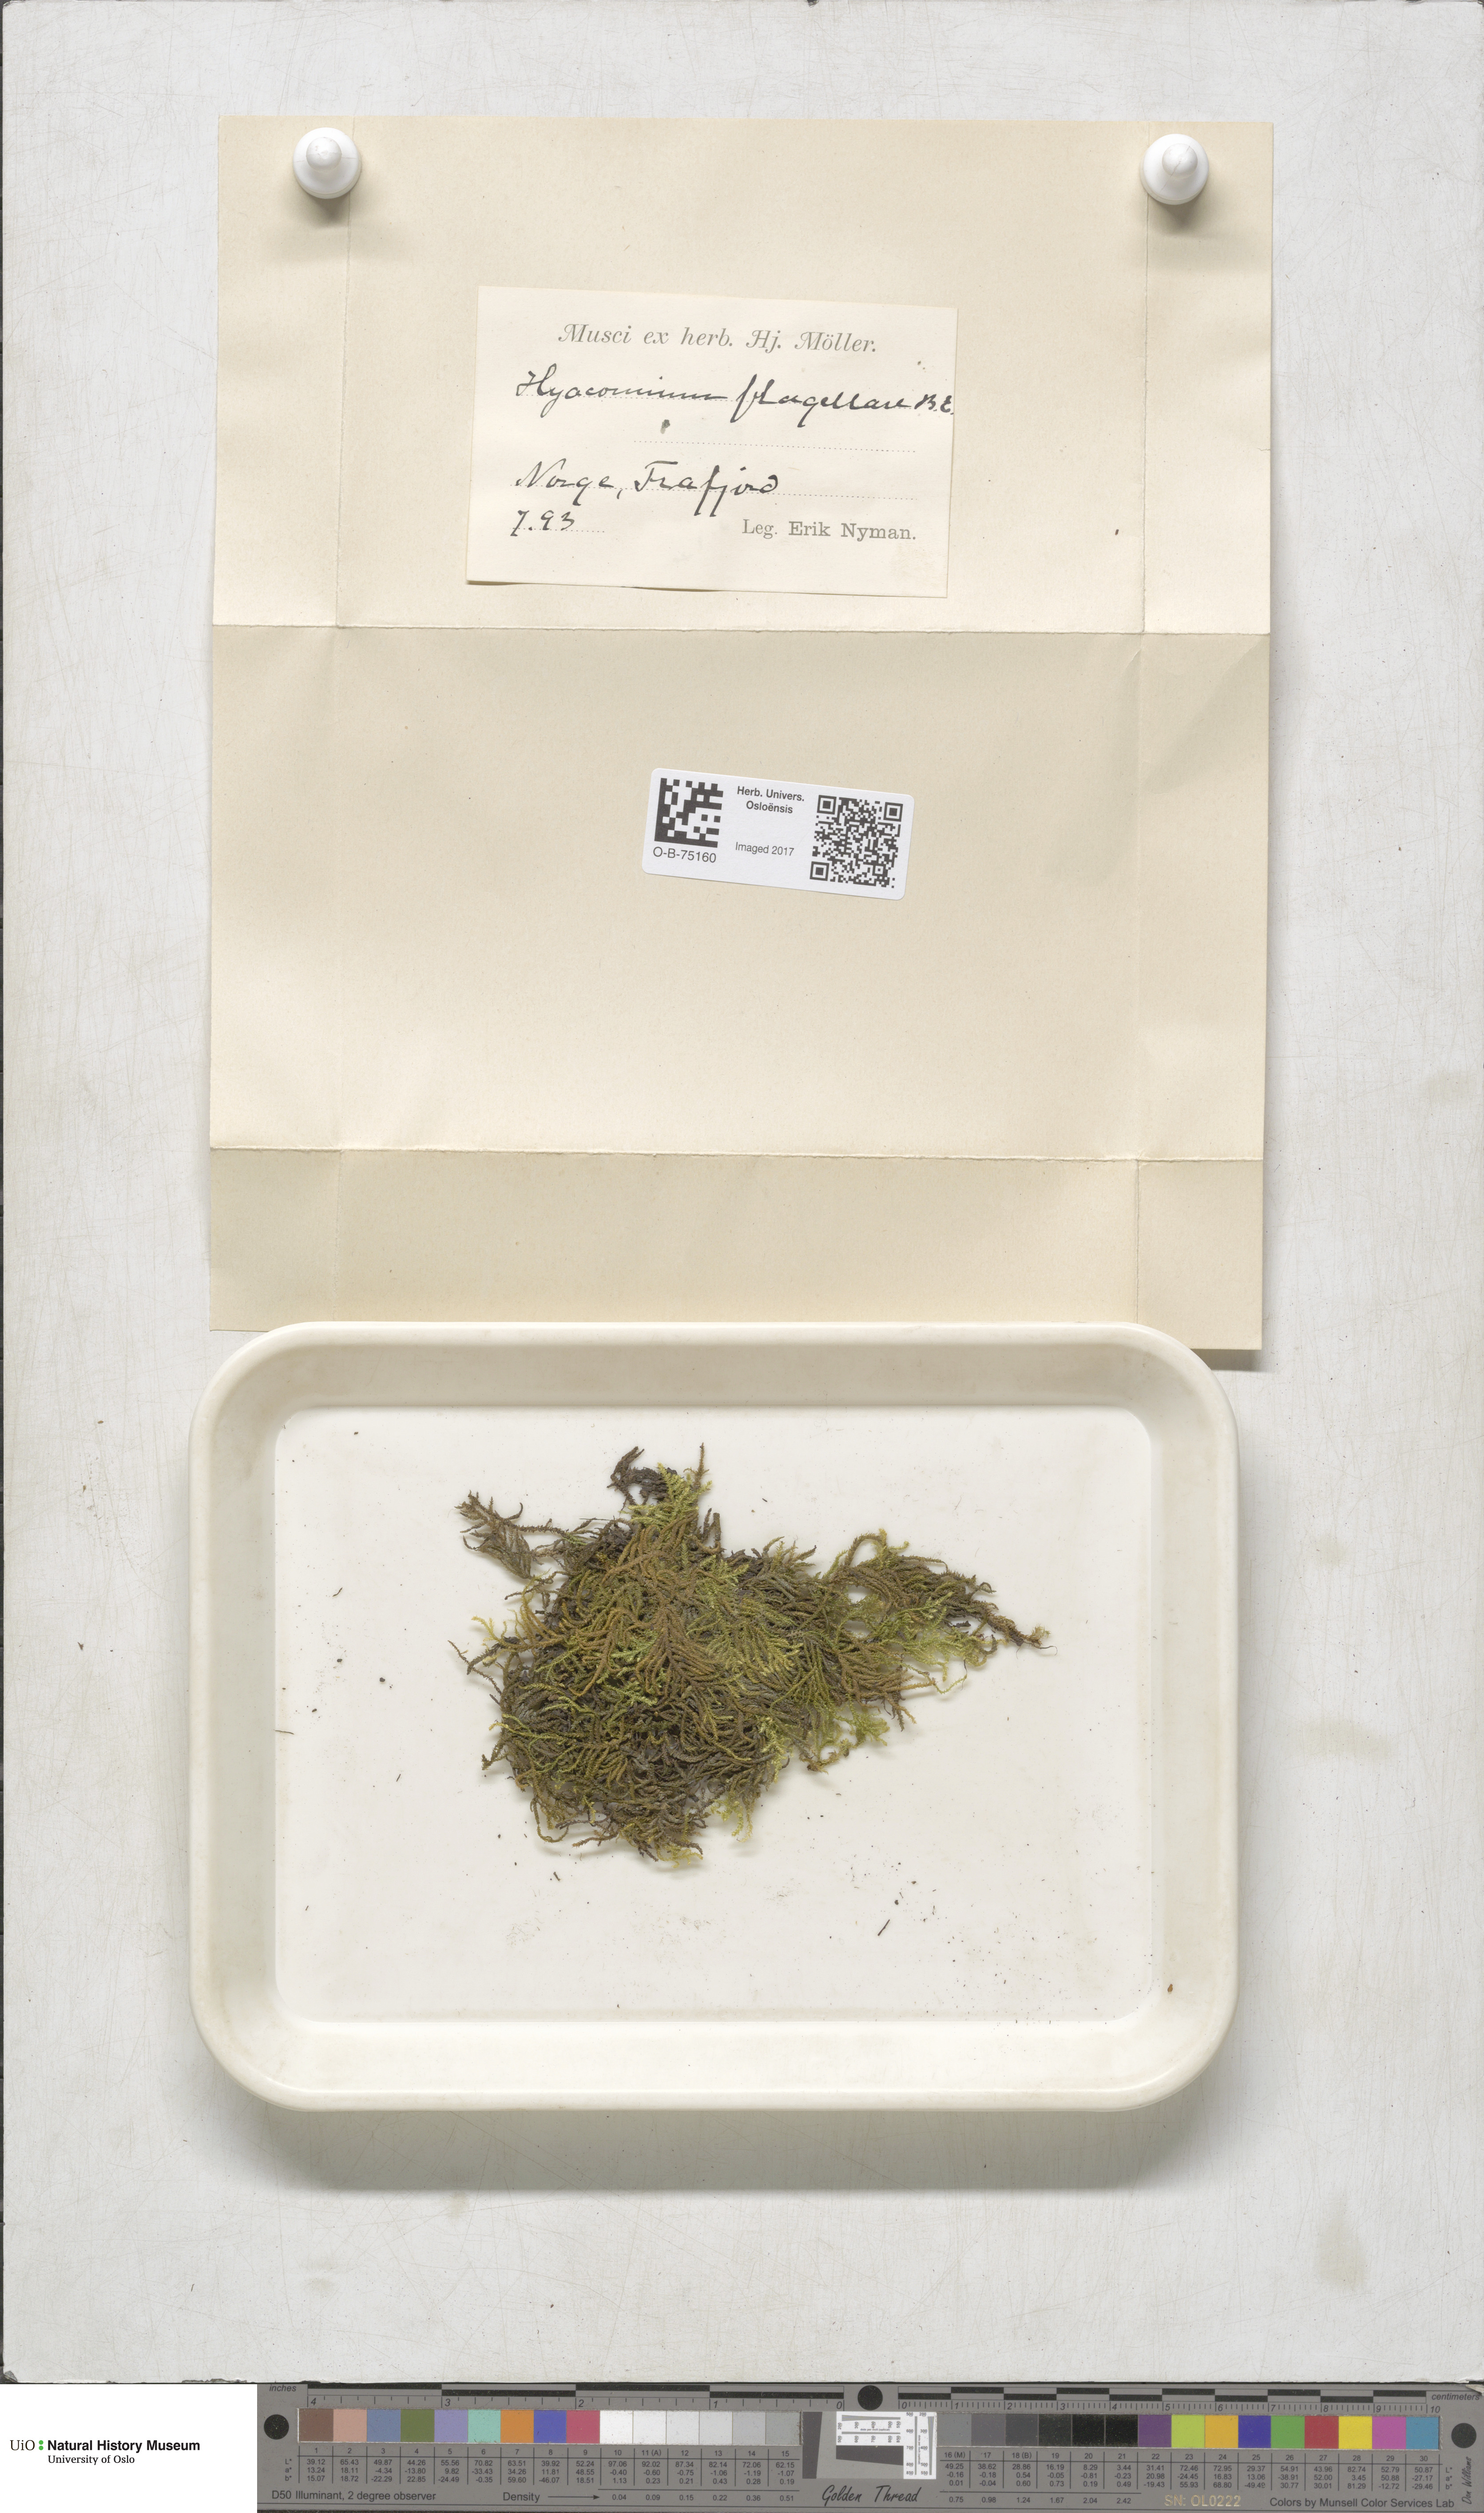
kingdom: Plantae
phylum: Bryophyta
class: Bryopsida
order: Hypnales
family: Myuriaceae
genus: Hyocomium
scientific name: Hyocomium armoricum
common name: Flagellate feather-moss
